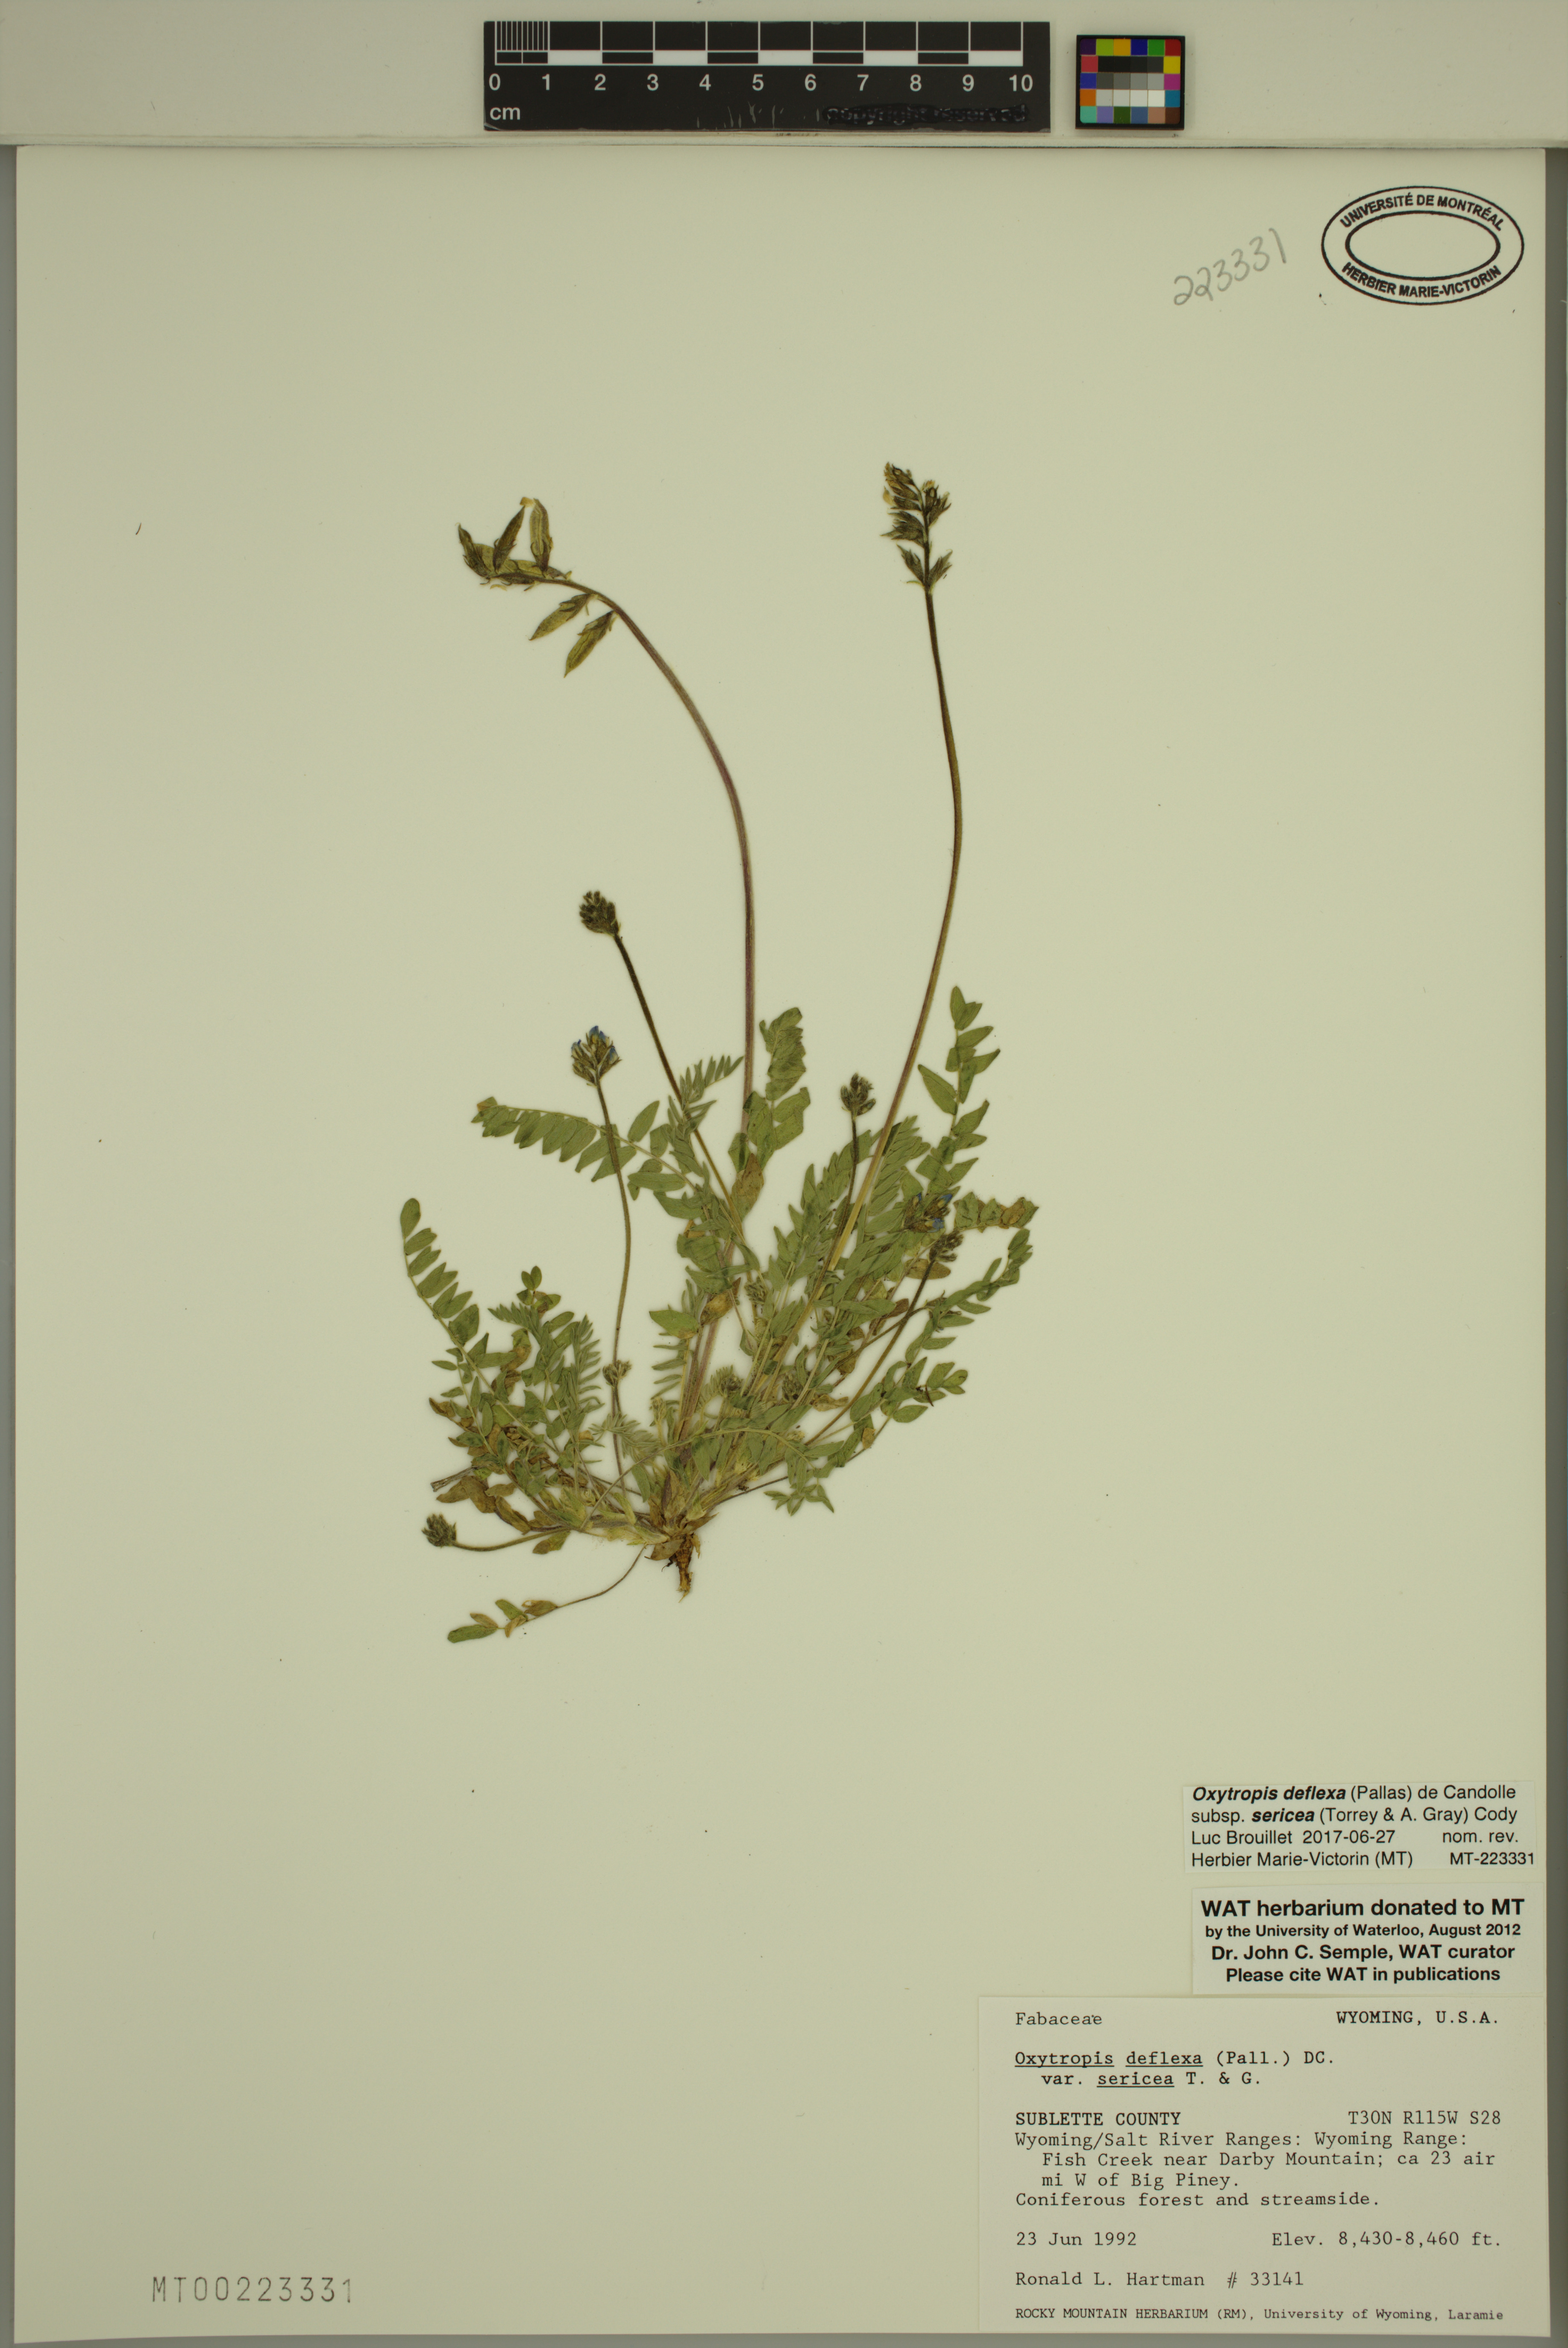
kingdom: Plantae
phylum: Tracheophyta
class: Magnoliopsida
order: Fabales
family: Fabaceae
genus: Oxytropis
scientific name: Oxytropis deflexa
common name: Stemmed oxytrope
